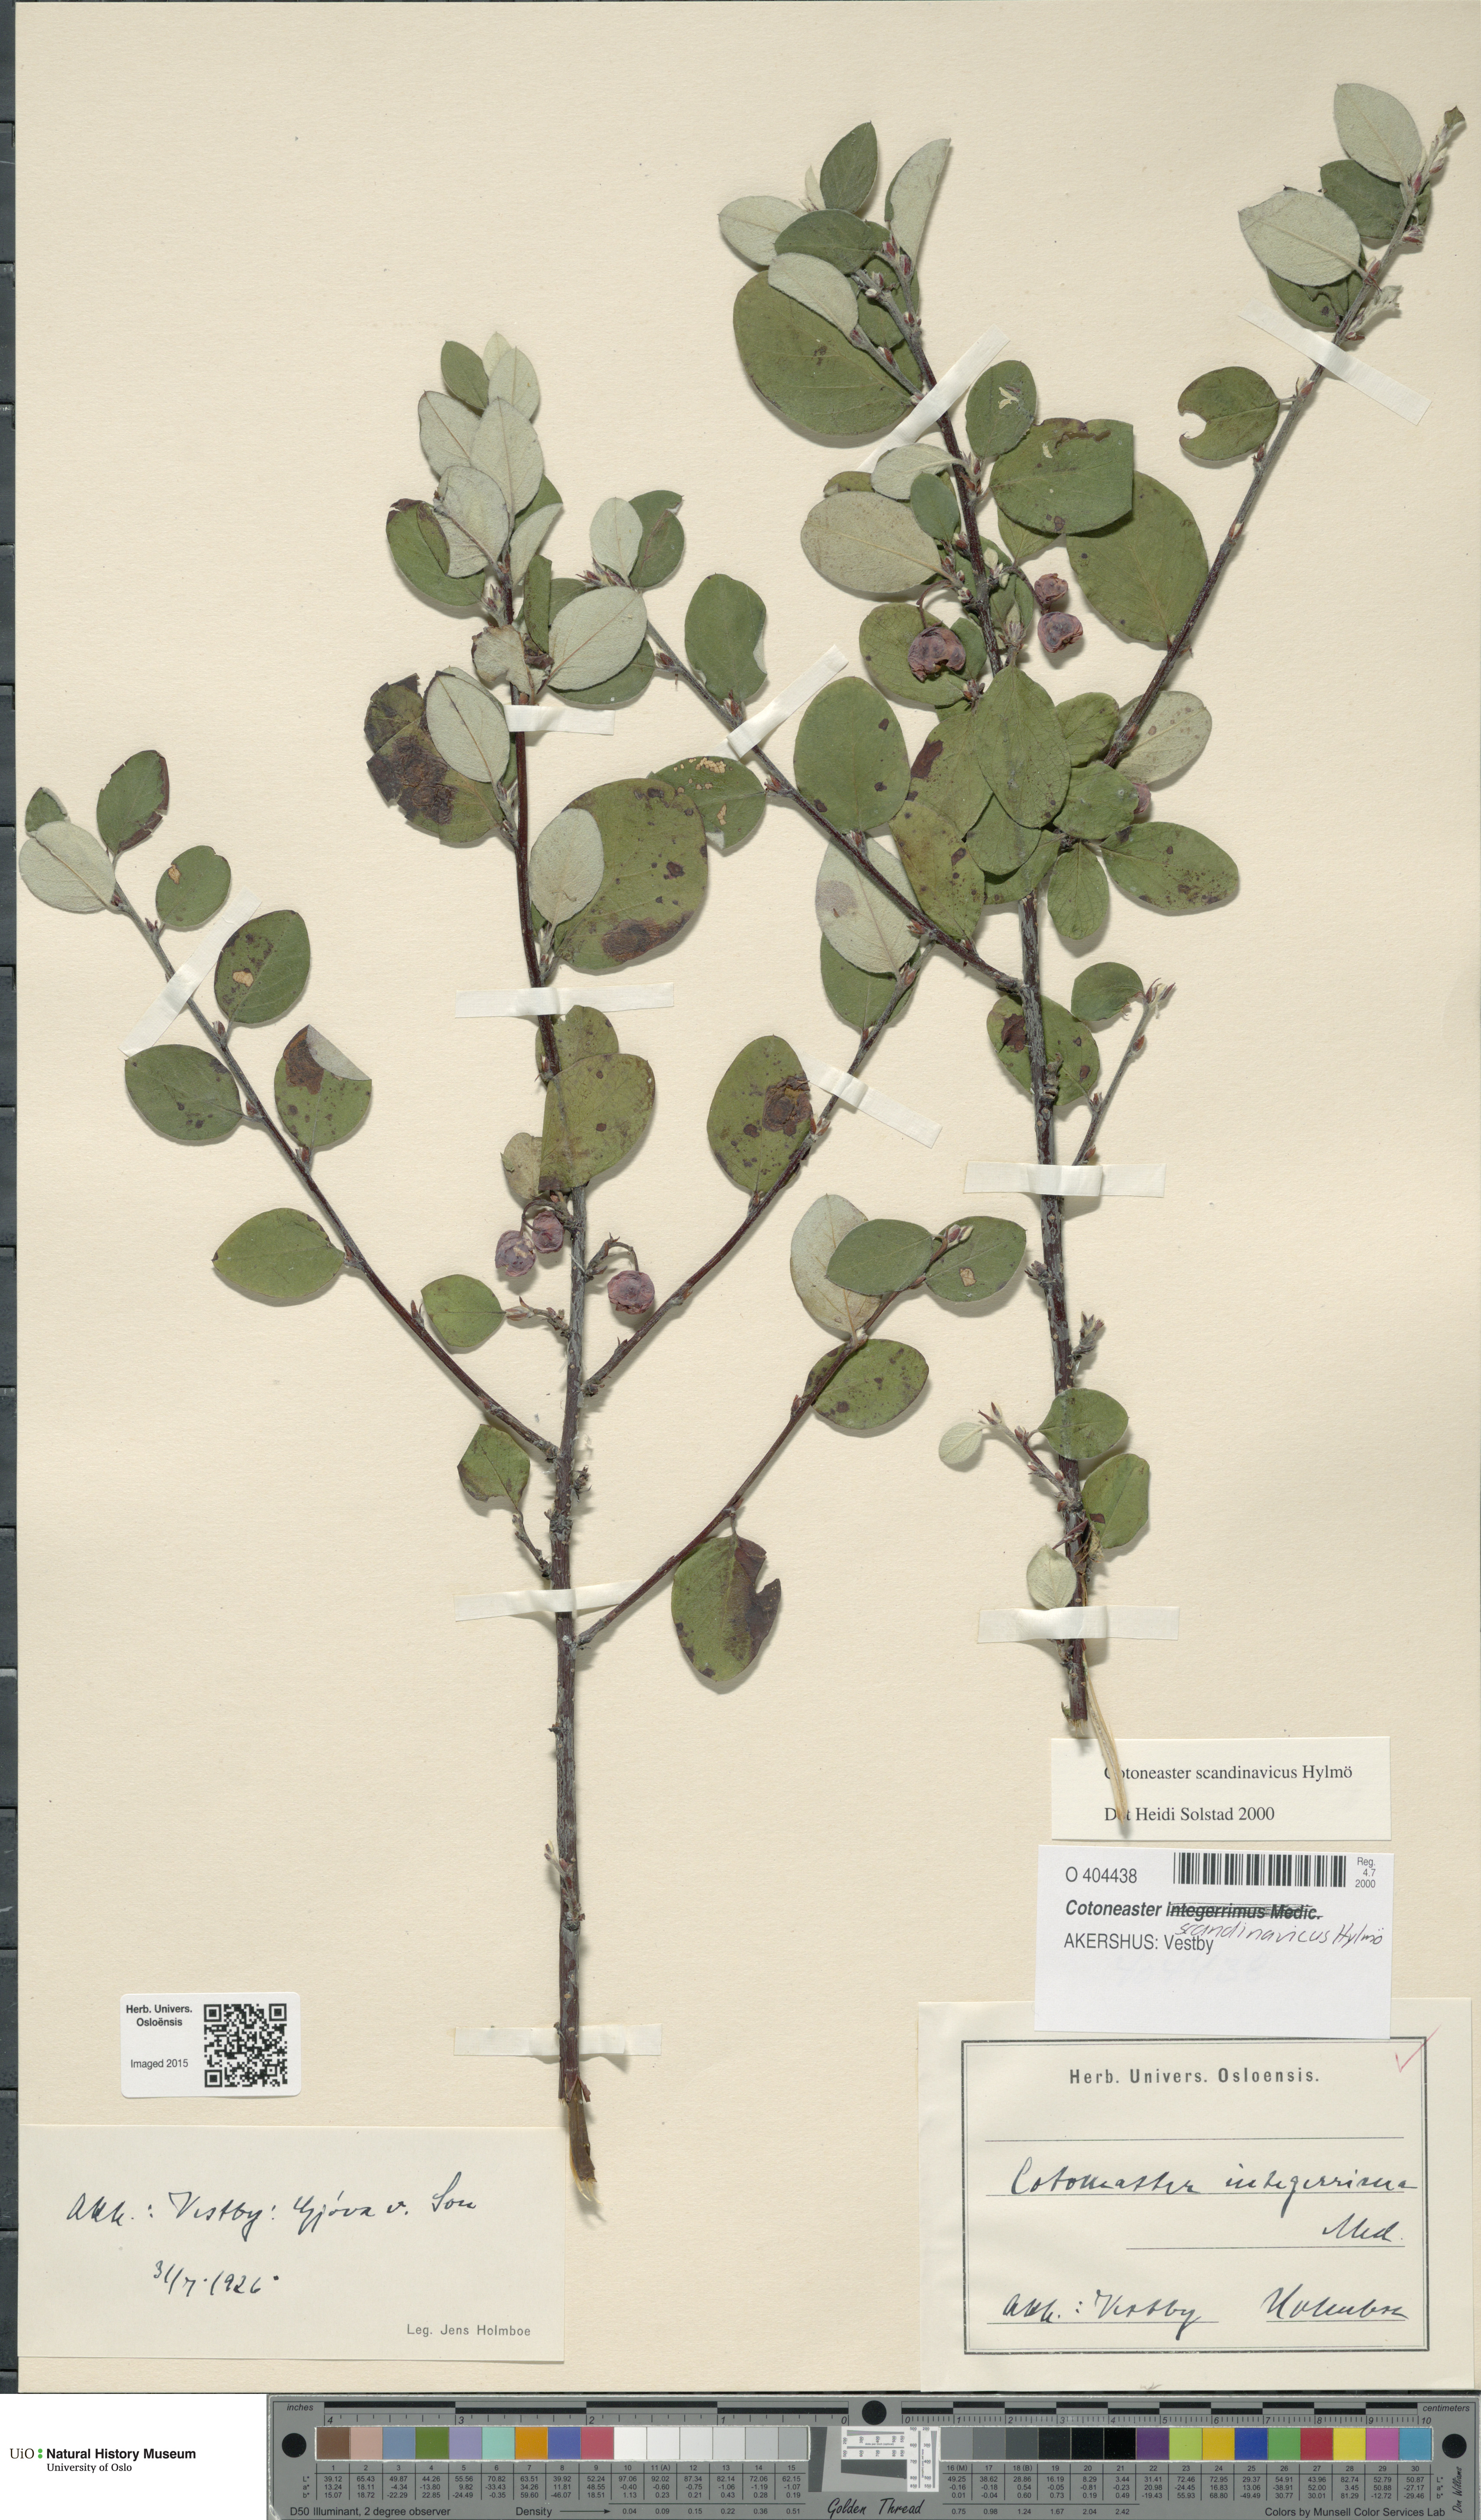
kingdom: Plantae
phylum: Tracheophyta
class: Magnoliopsida
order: Rosales
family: Rosaceae
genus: Cotoneaster
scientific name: Cotoneaster integerrimus
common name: Wild cotoneaster
